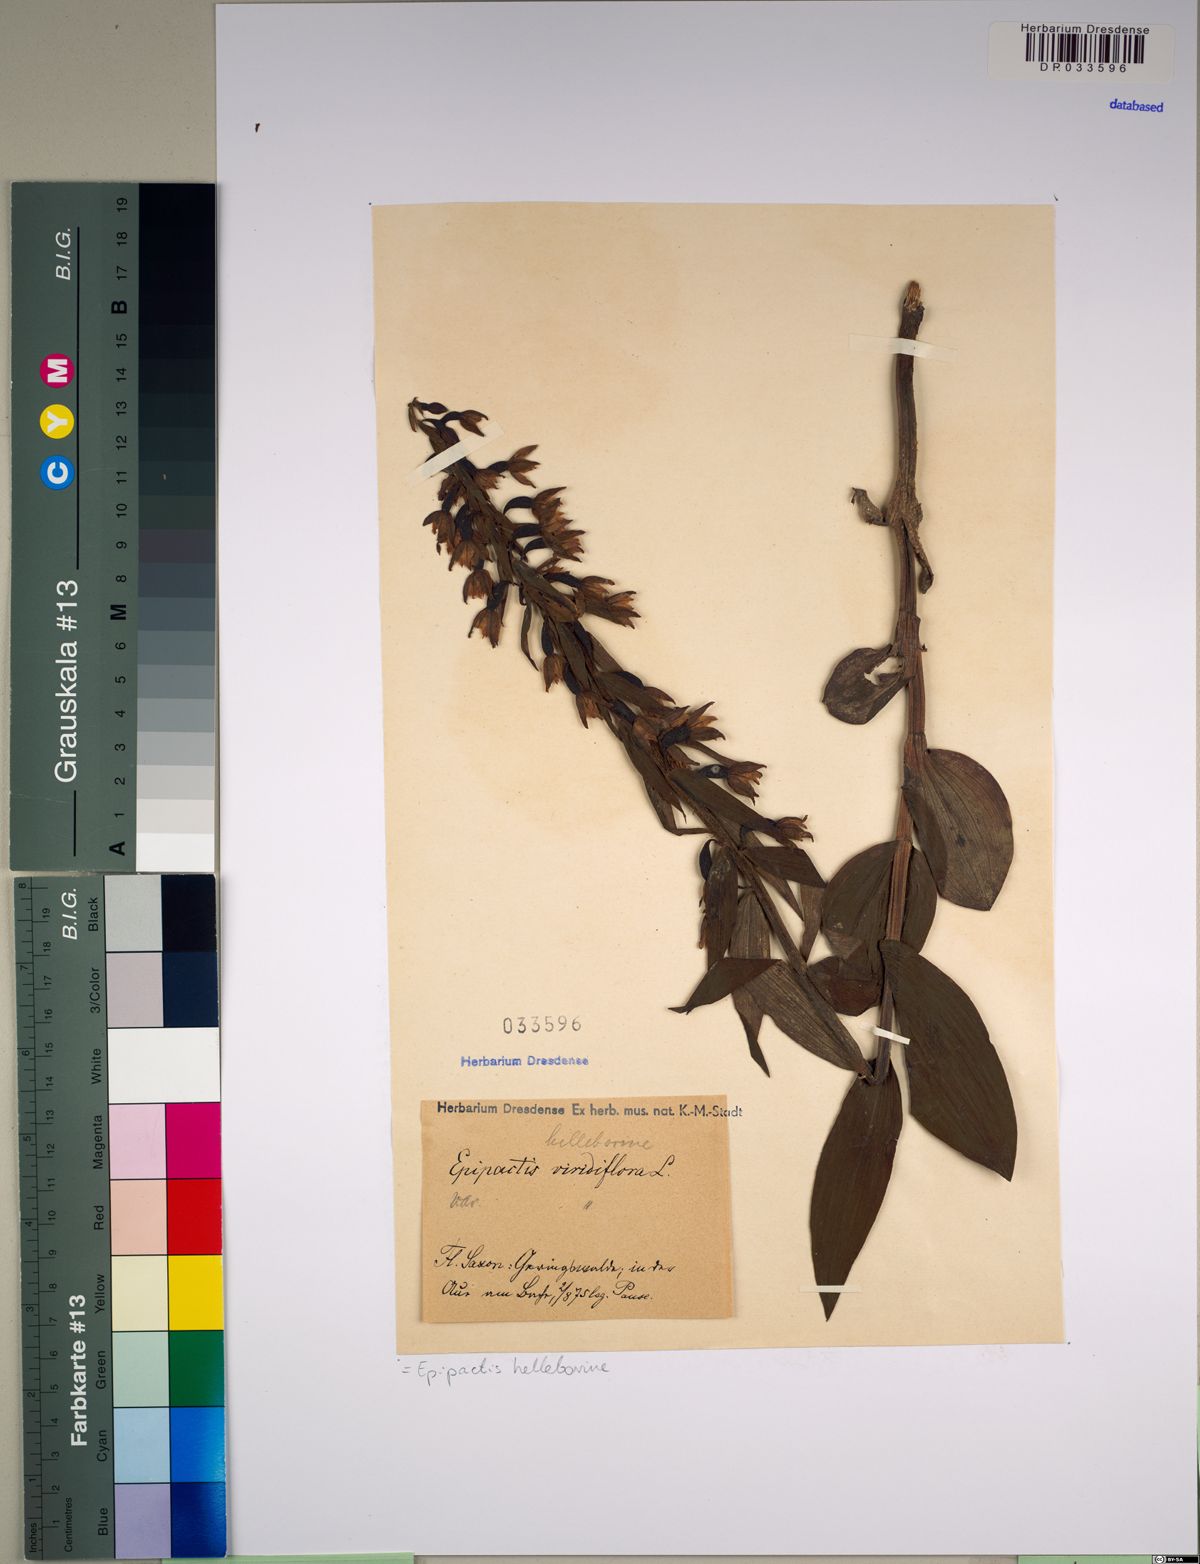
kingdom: Plantae
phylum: Tracheophyta
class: Liliopsida
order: Asparagales
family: Orchidaceae
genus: Epipactis
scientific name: Epipactis helleborine
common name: Broad-leaved helleborine
